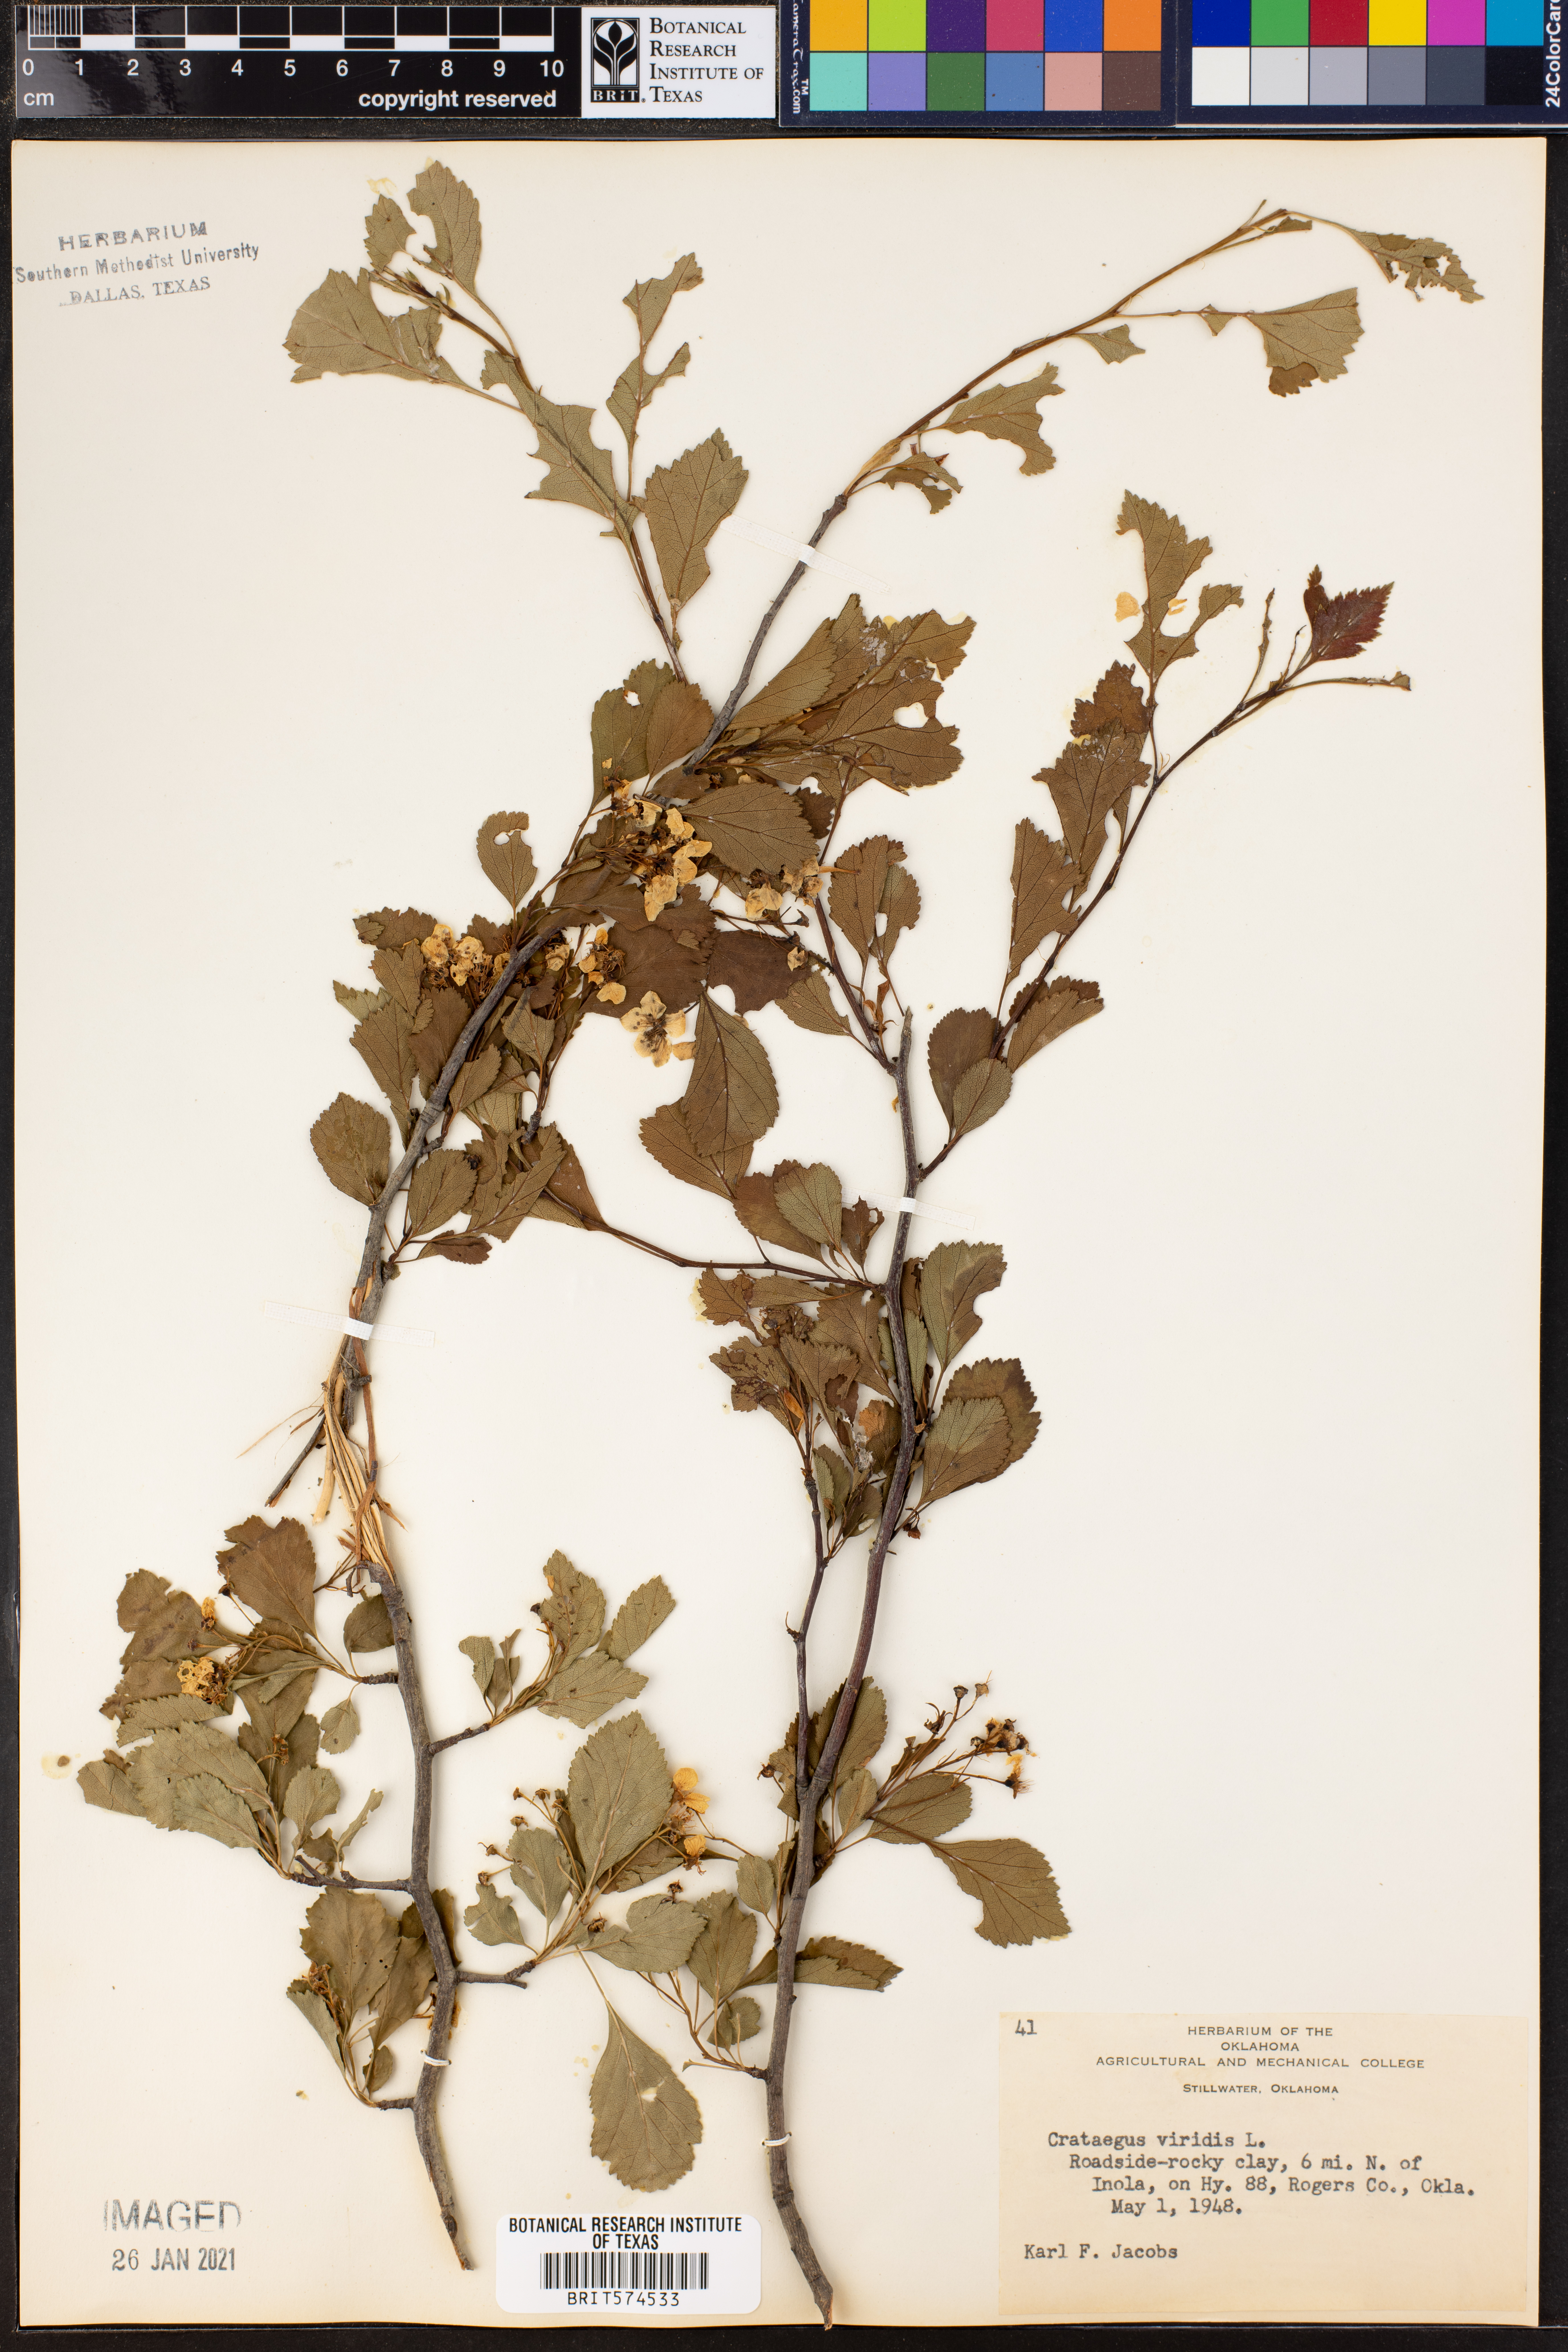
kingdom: Plantae
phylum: Tracheophyta
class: Magnoliopsida
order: Rosales
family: Rosaceae
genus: Crataegus
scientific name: Crataegus viridis
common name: Southernthorn
